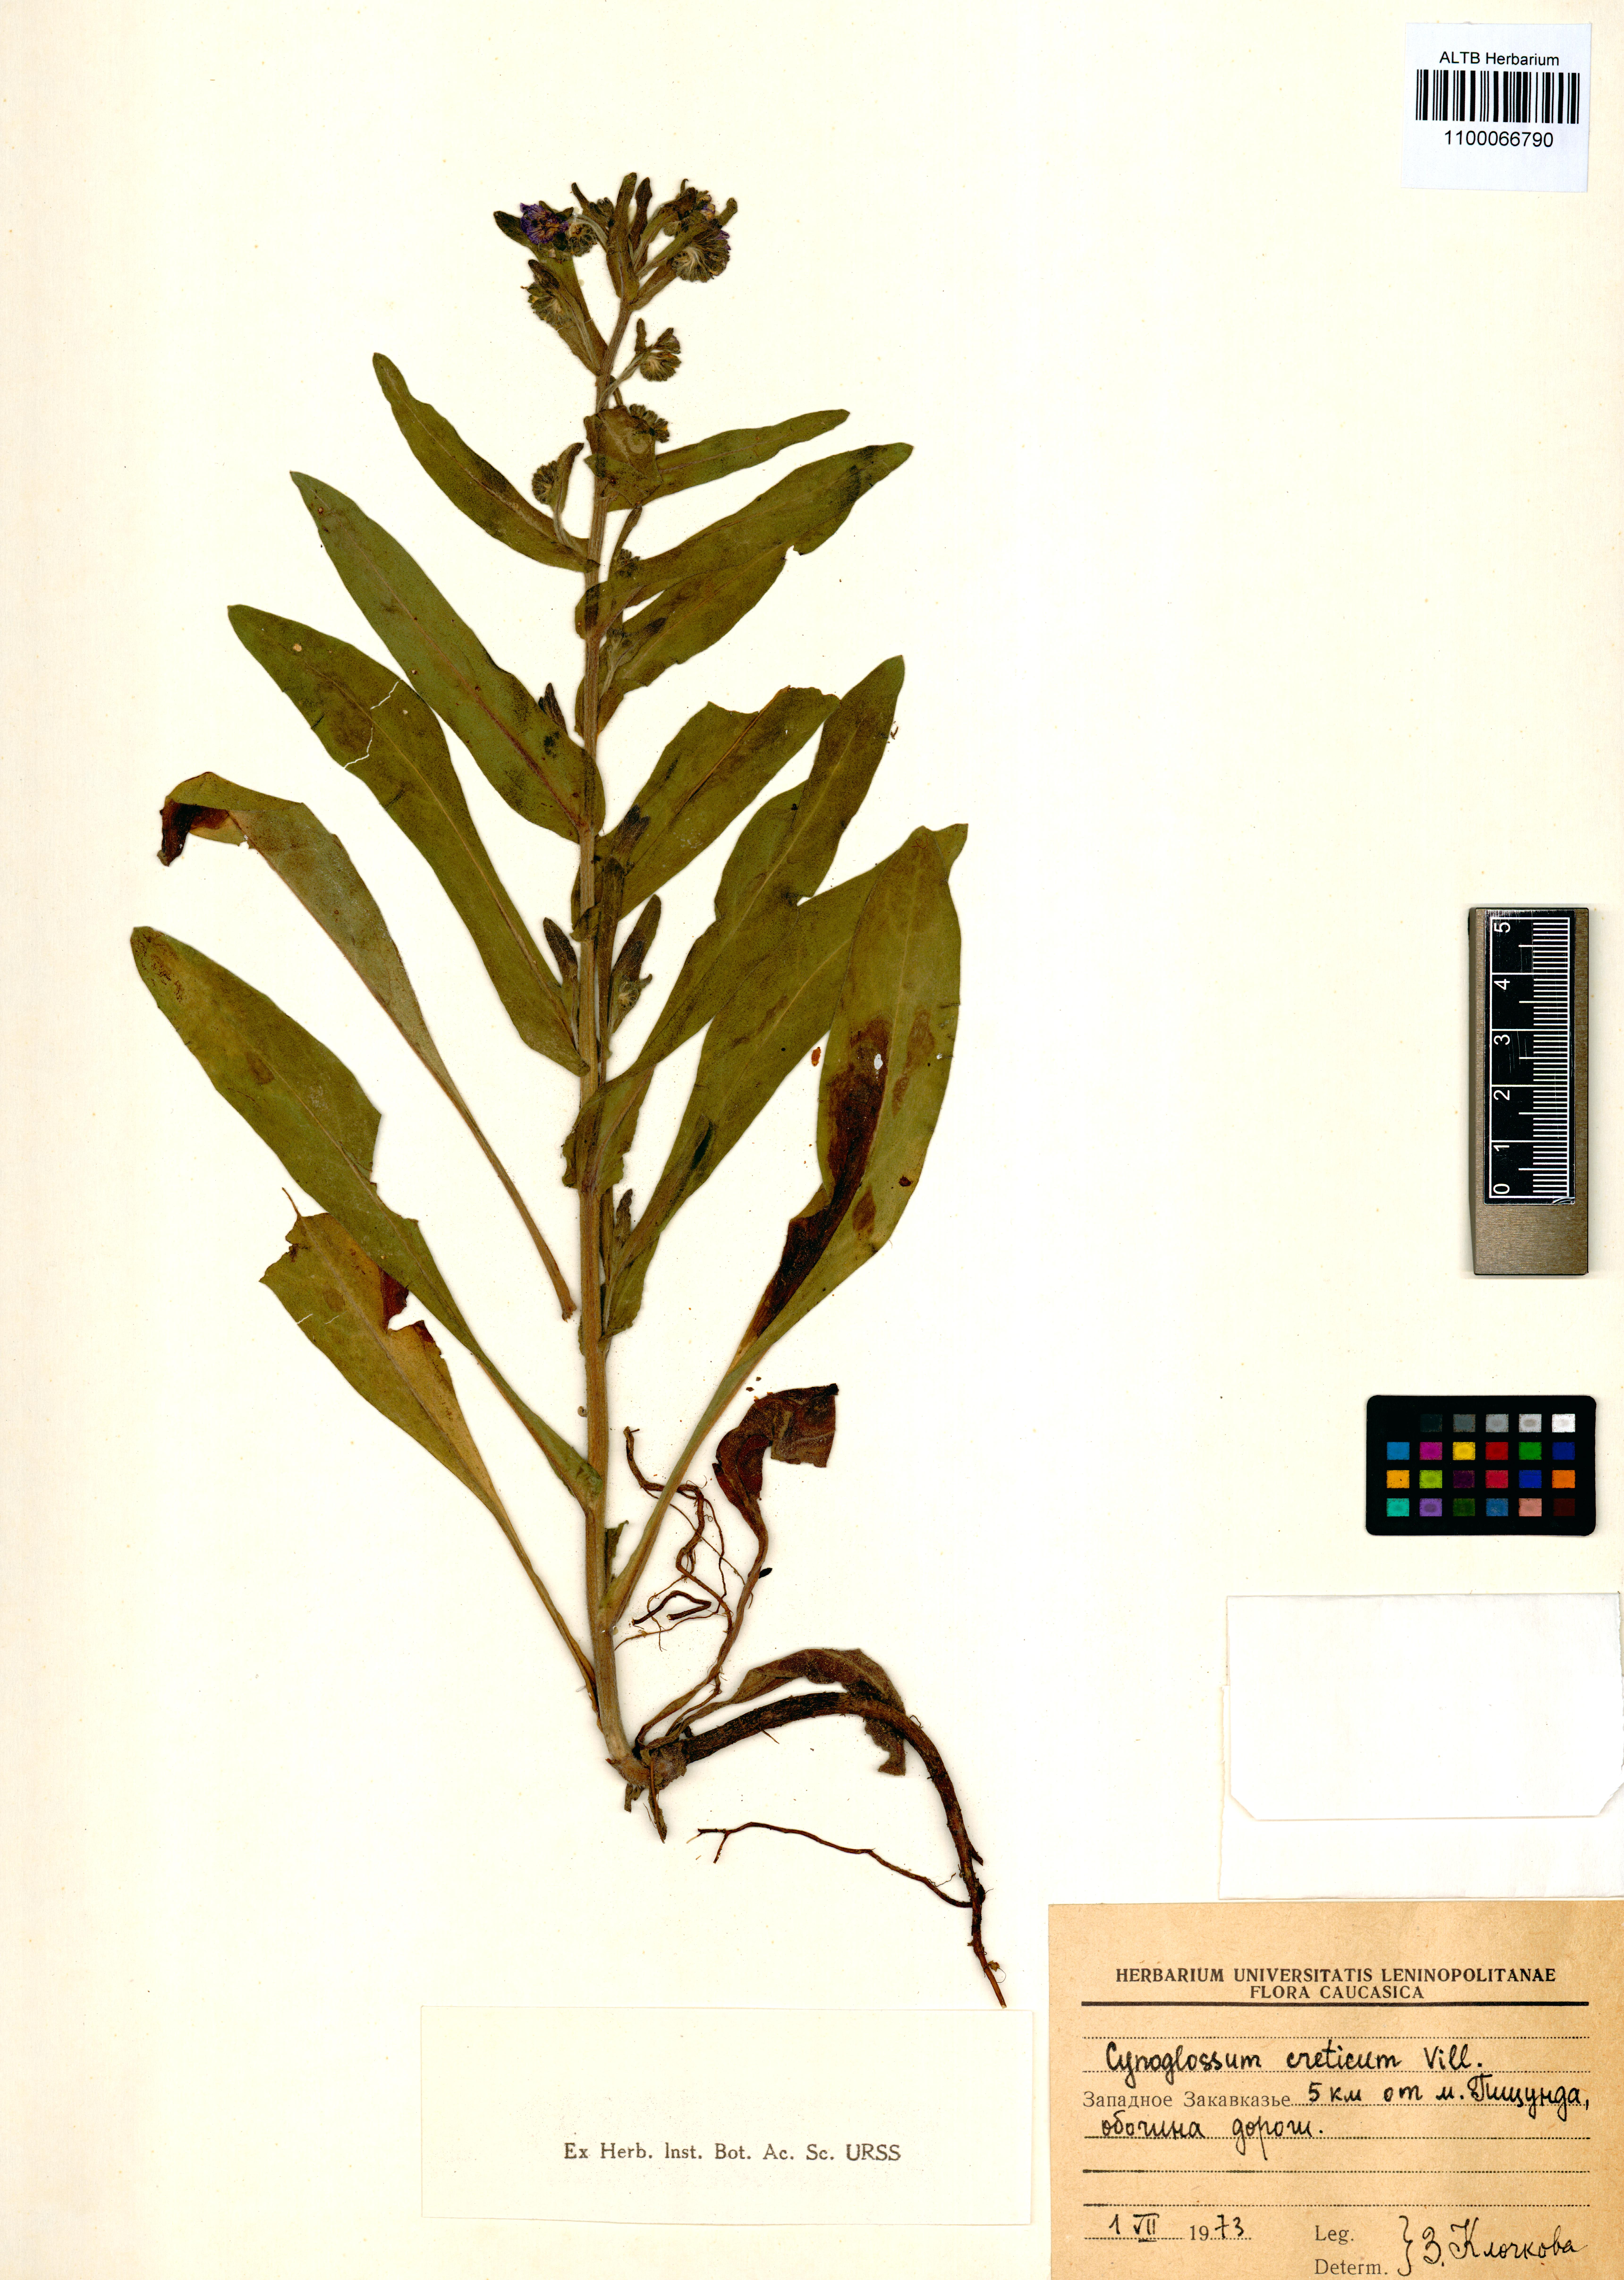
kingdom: Plantae
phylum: Tracheophyta
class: Magnoliopsida
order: Boraginales
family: Boraginaceae
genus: Cynoglossum
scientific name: Cynoglossum creticum
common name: Blue hound's tongue
